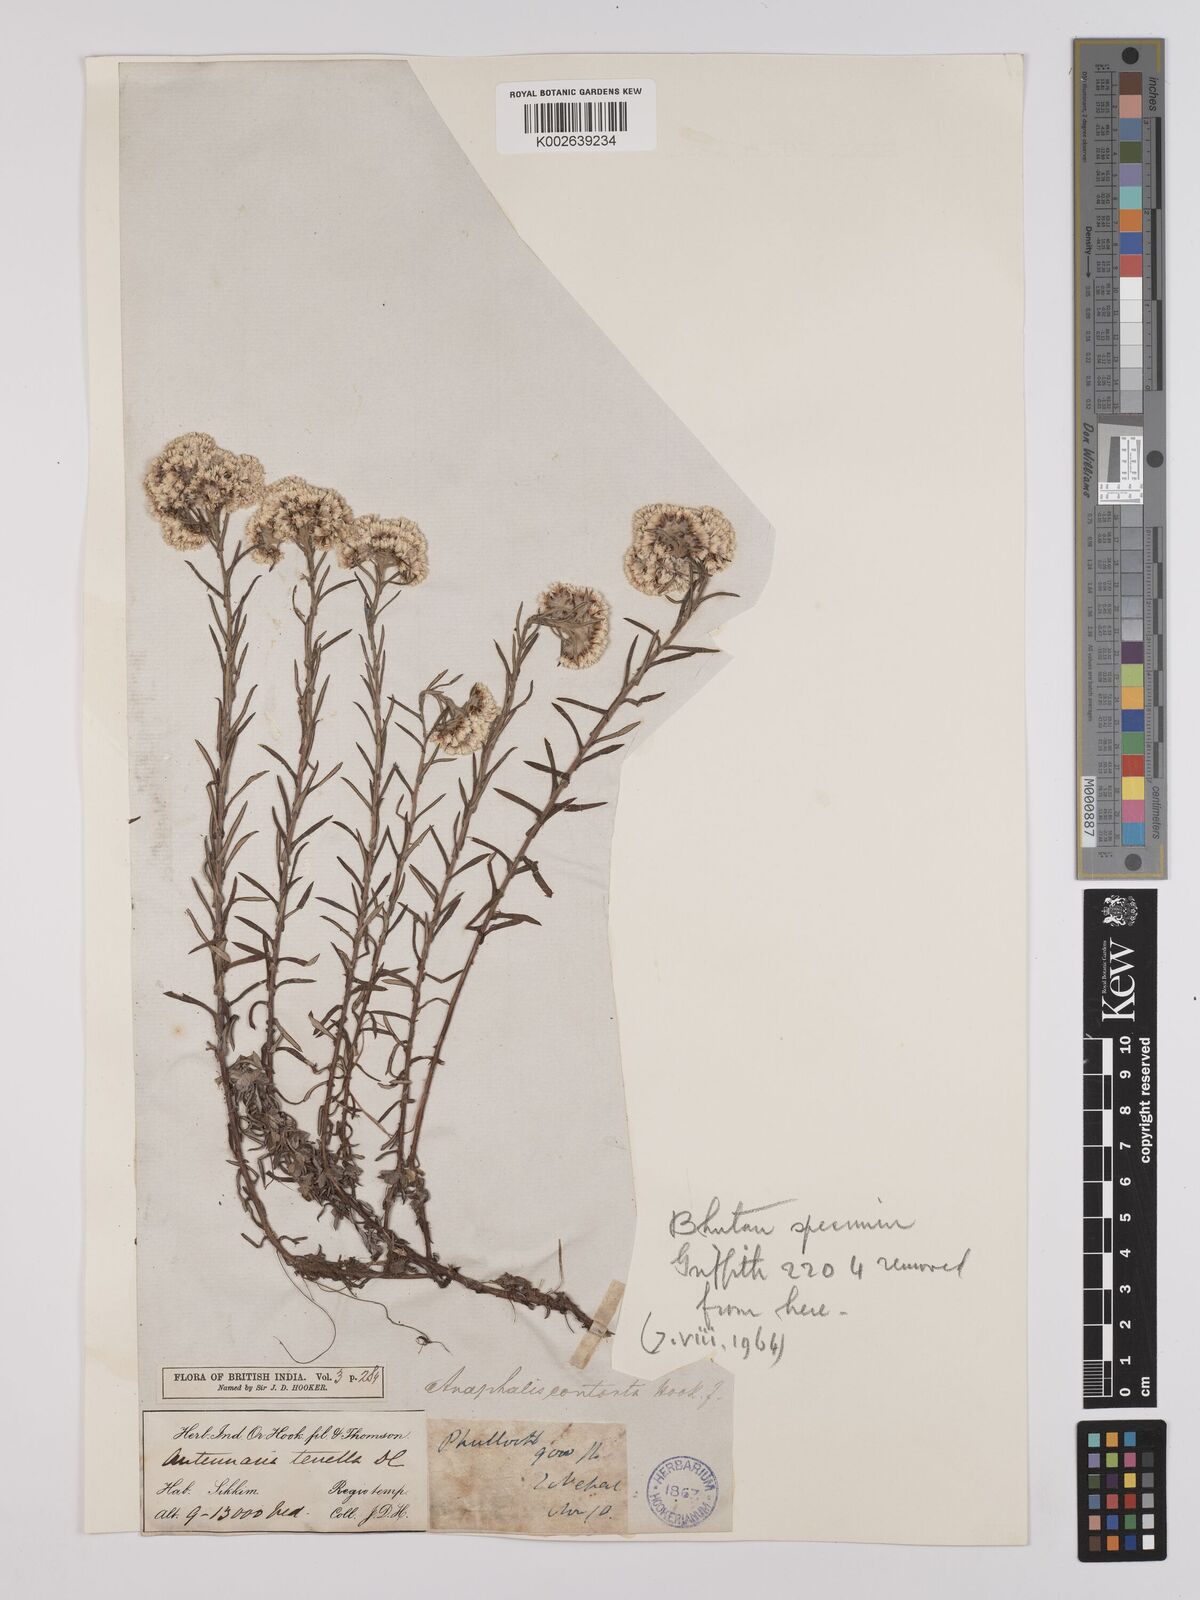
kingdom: Plantae
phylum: Tracheophyta
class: Magnoliopsida
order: Asterales
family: Asteraceae
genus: Anaphalis
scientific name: Anaphalis contorta
